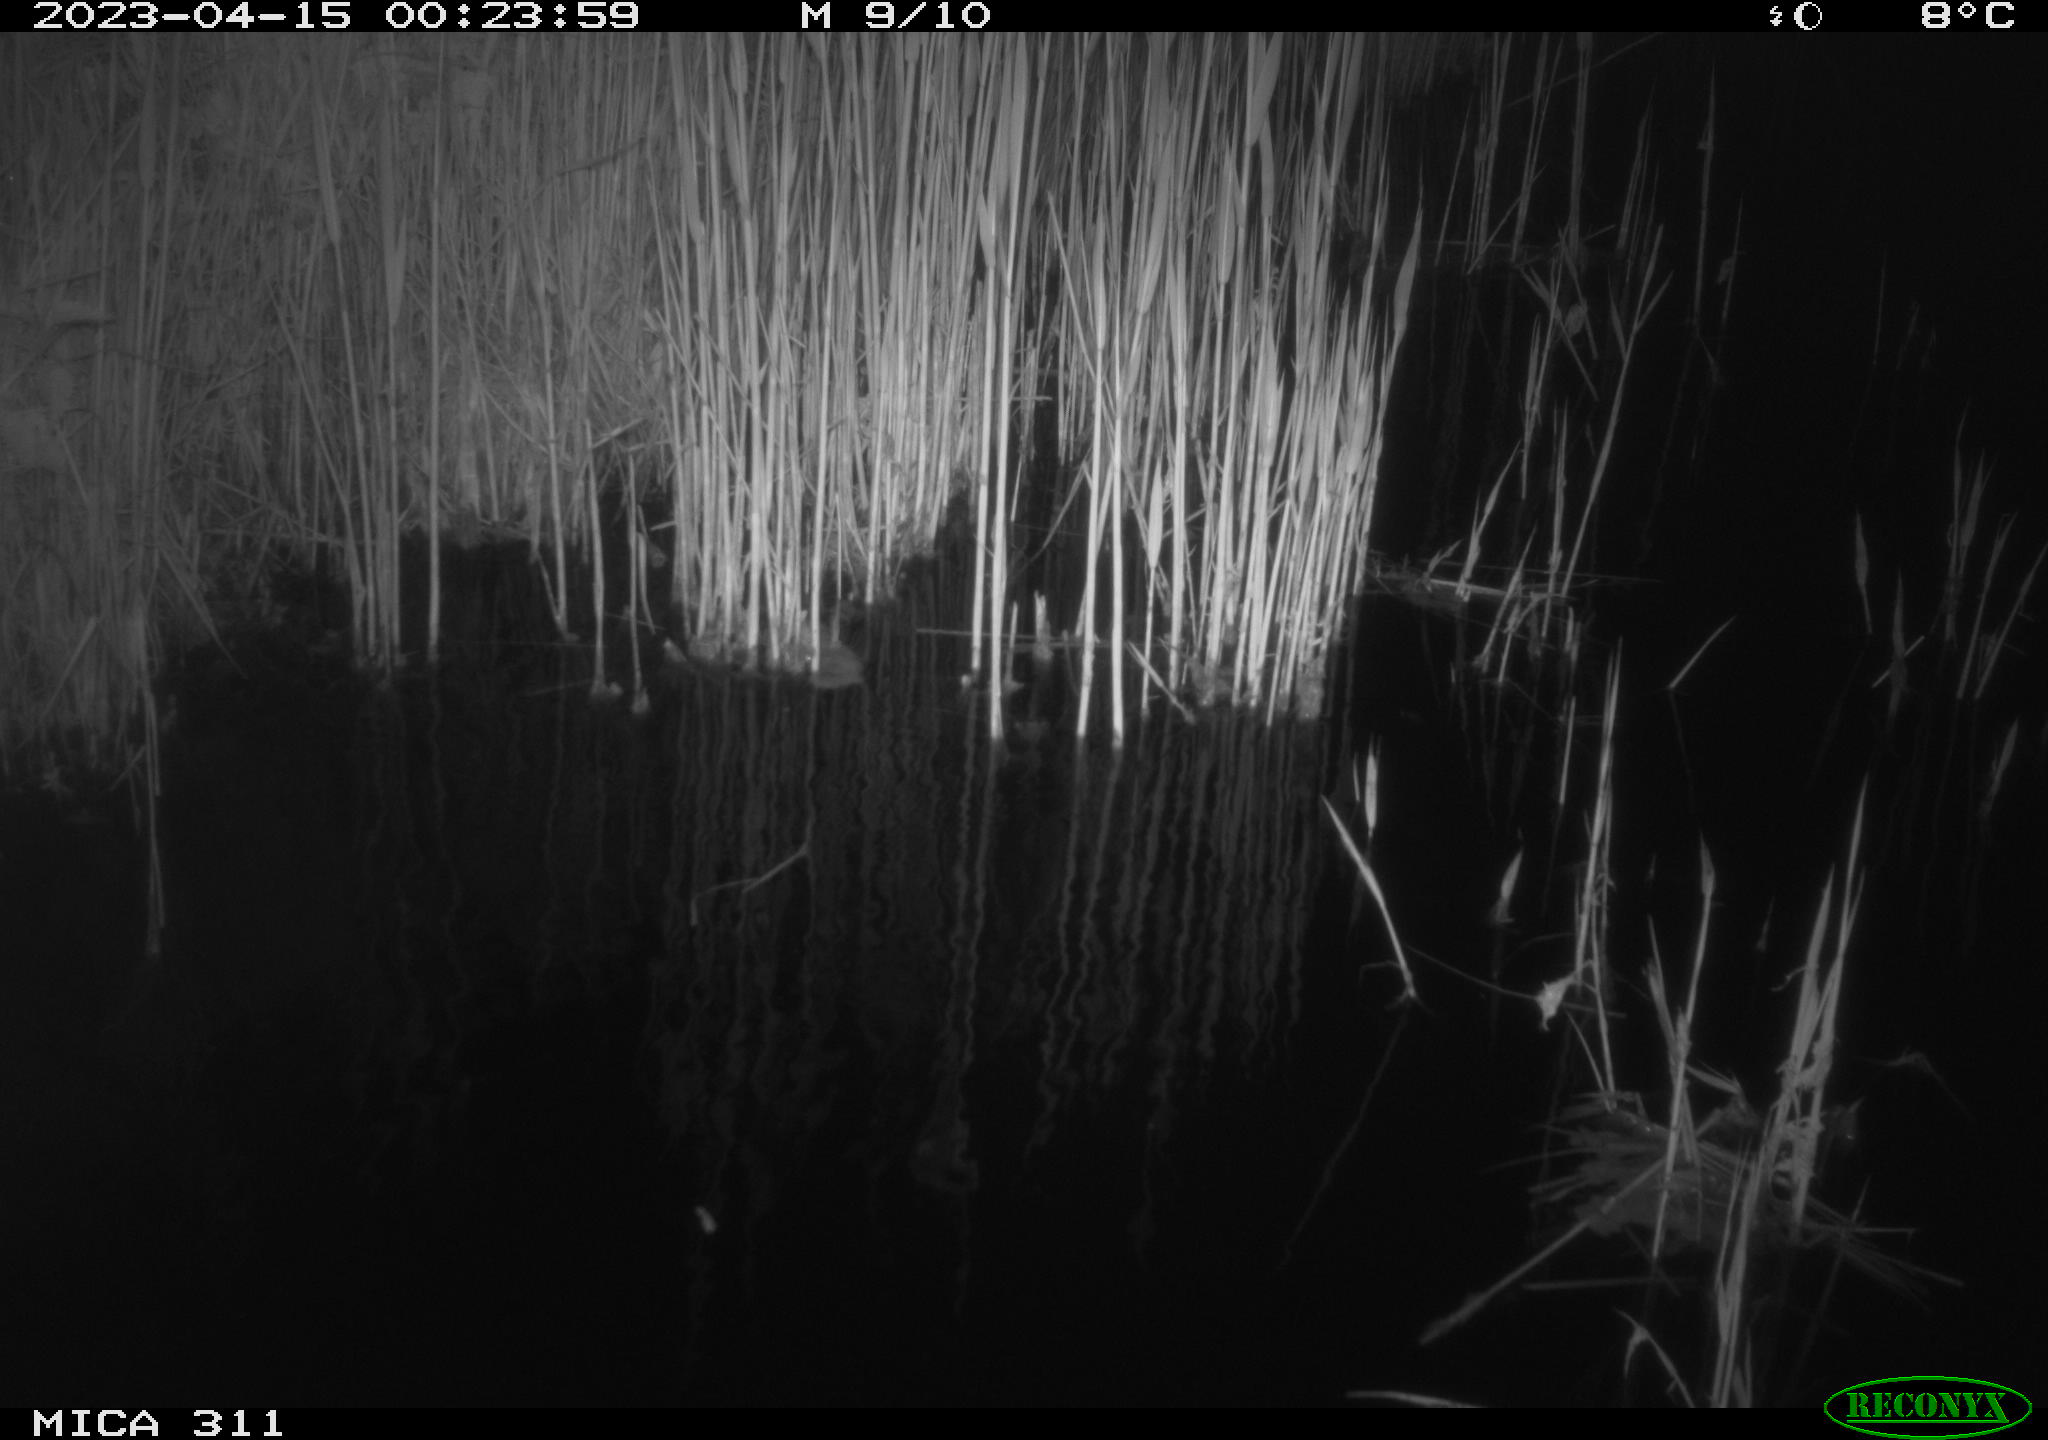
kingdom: Animalia
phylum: Chordata
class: Aves
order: Anseriformes
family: Anatidae
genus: Anas
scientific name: Anas
